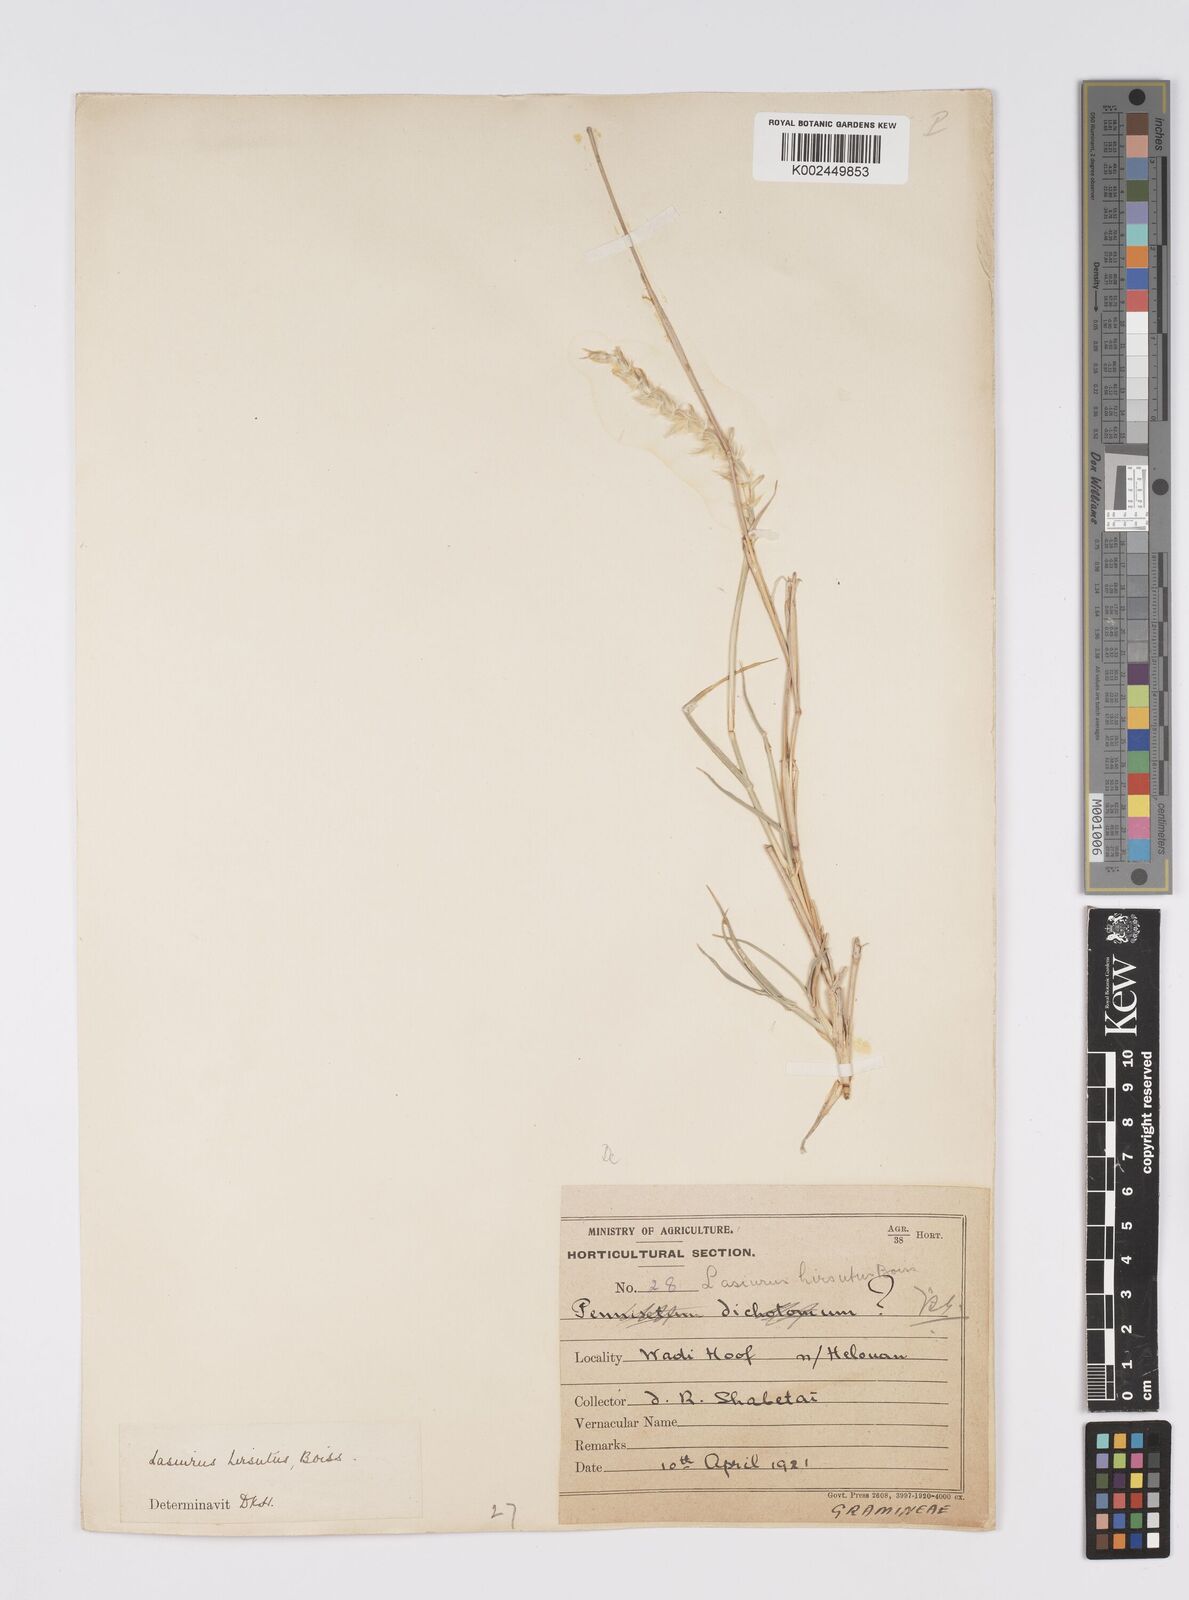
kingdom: Plantae
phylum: Tracheophyta
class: Liliopsida
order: Poales
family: Poaceae
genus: Lasiurus
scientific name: Lasiurus scindicus
